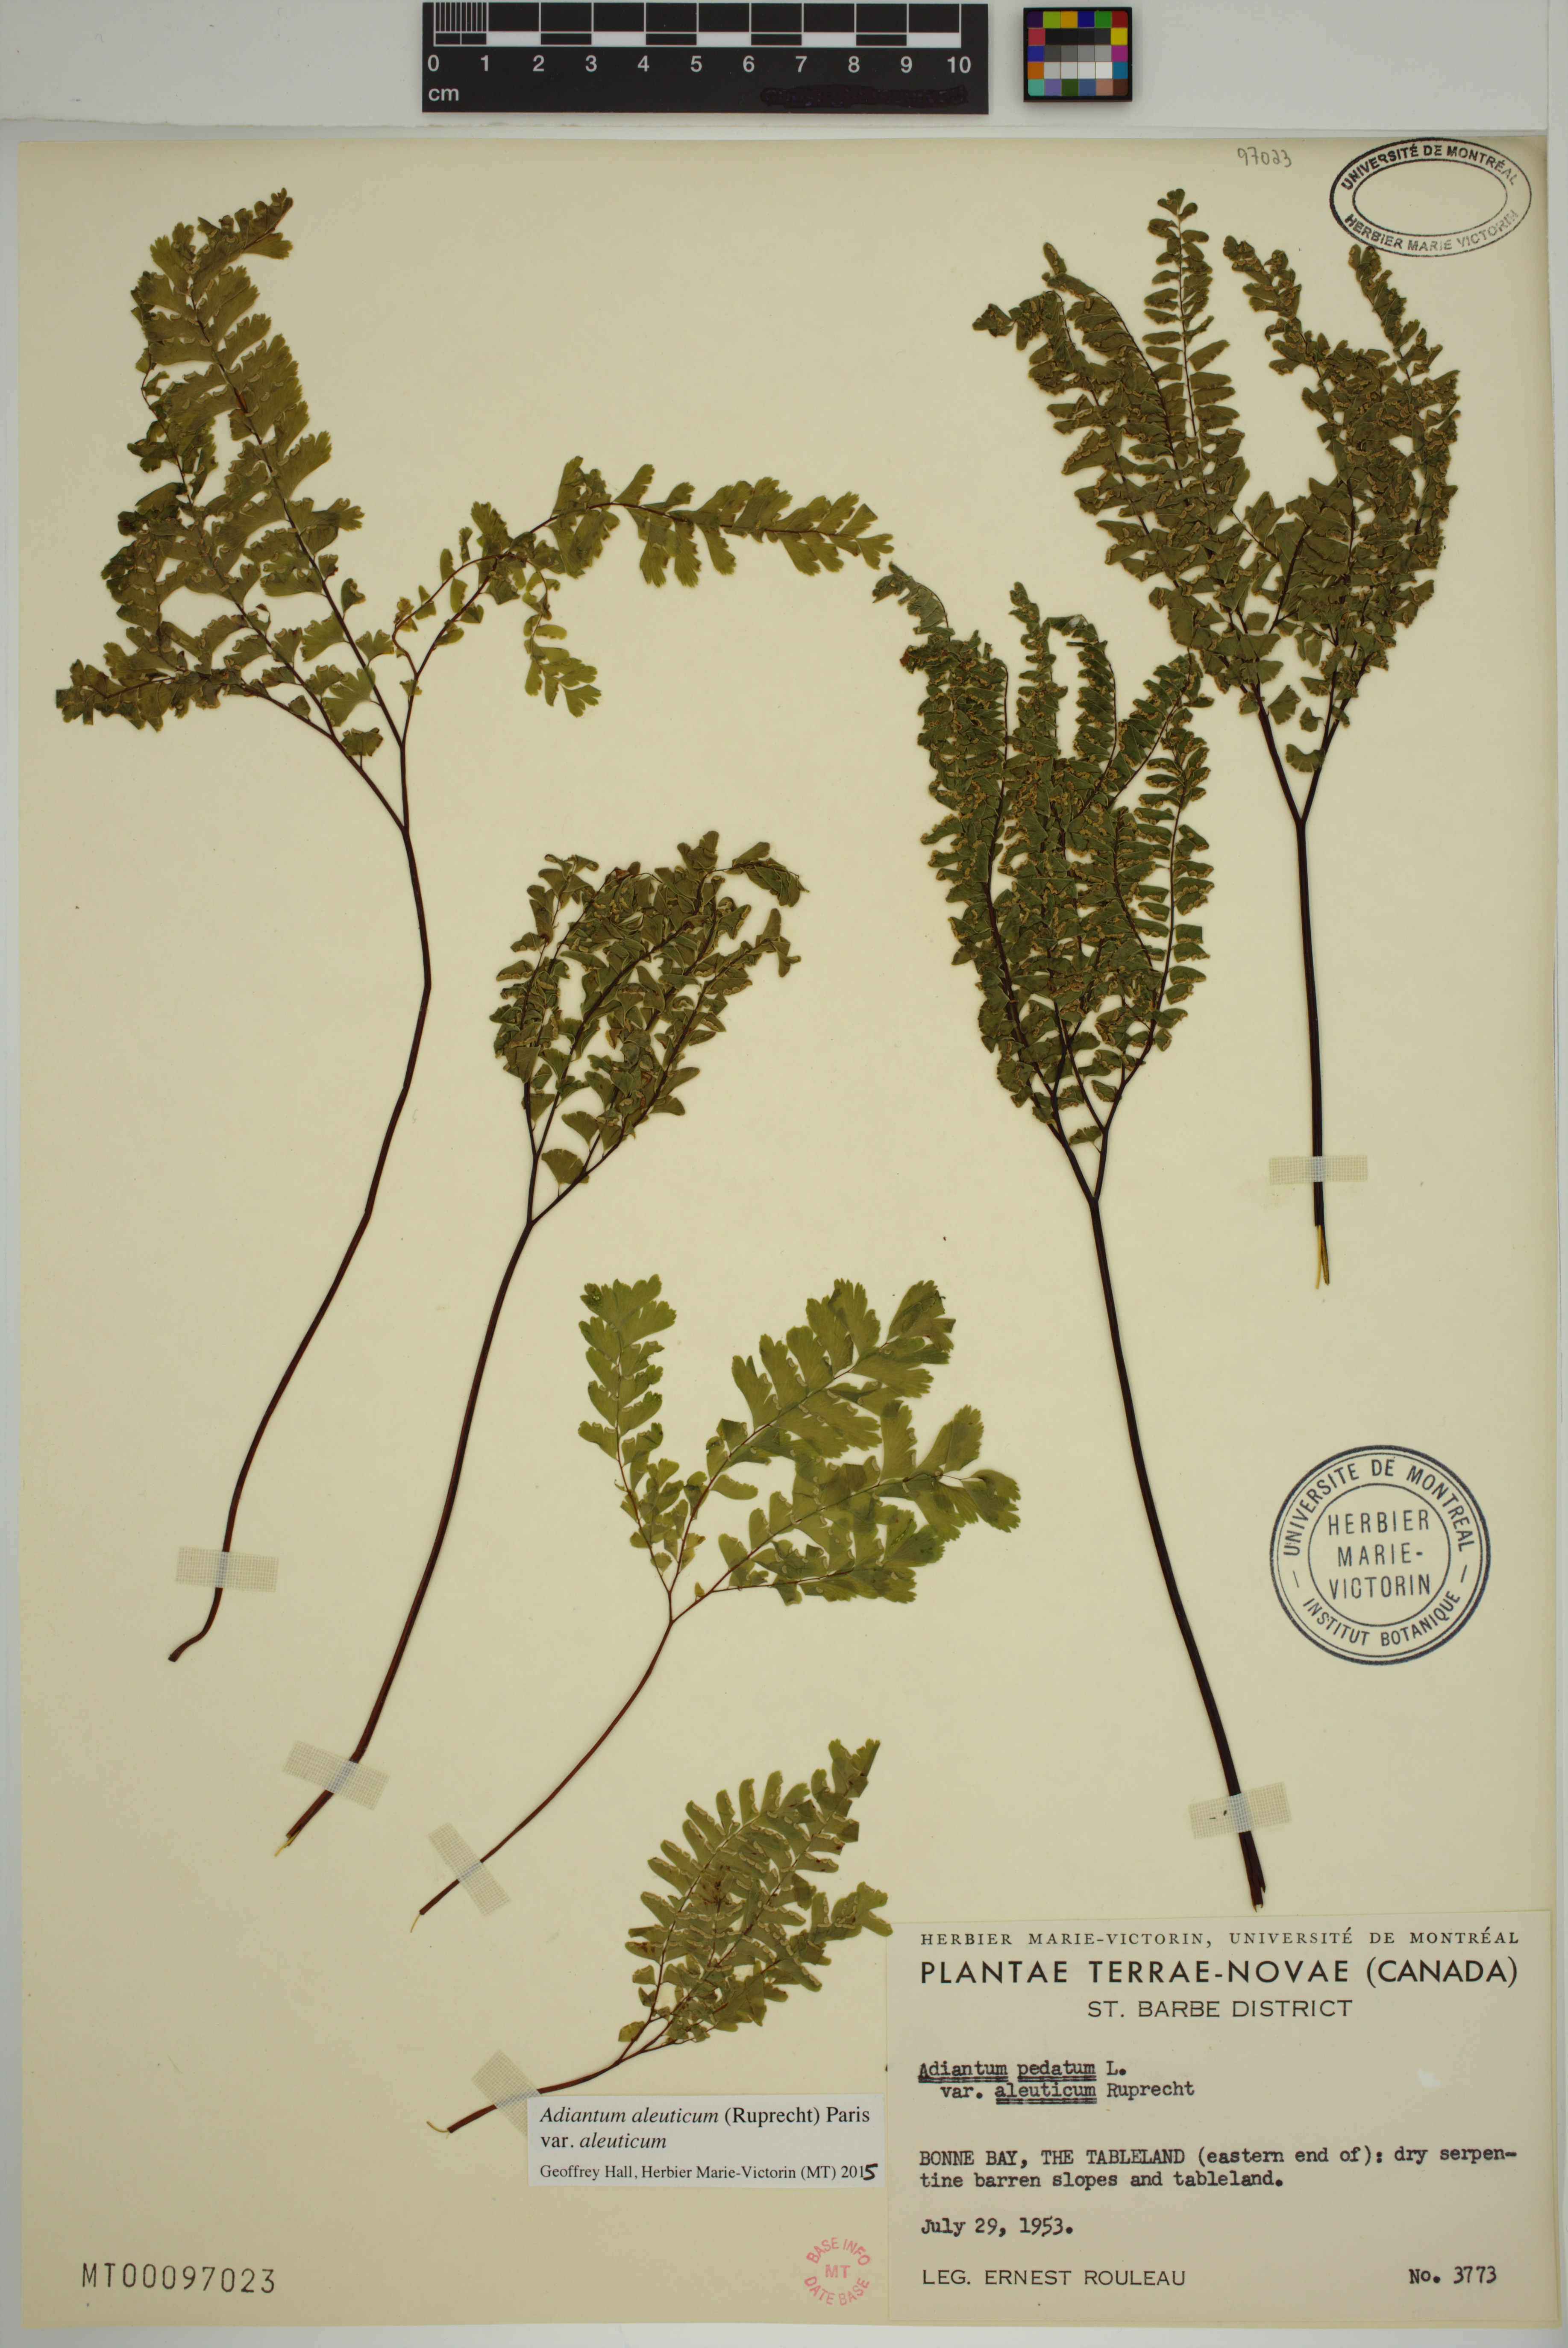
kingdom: Plantae
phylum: Tracheophyta
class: Polypodiopsida
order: Polypodiales
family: Pteridaceae
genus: Adiantum
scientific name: Adiantum aleuticum
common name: Aleutian maidenhair fern
